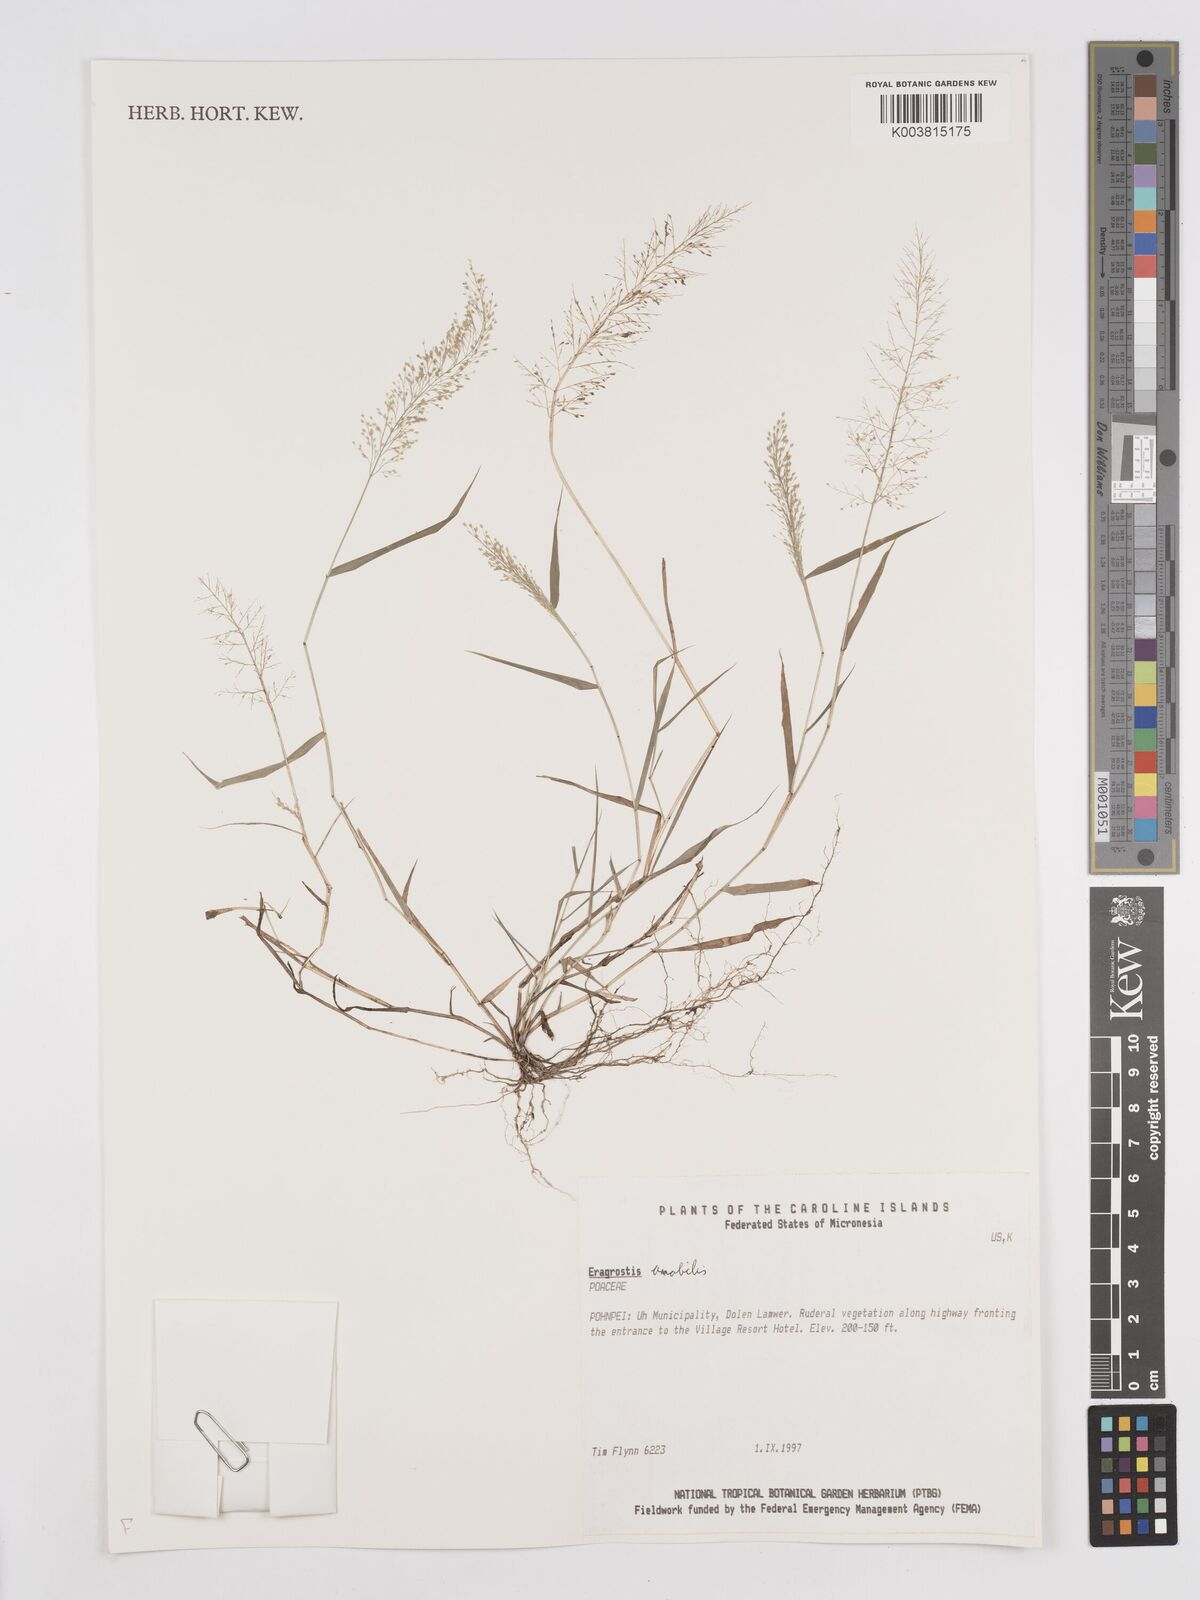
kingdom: Plantae
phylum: Tracheophyta
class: Liliopsida
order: Poales
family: Poaceae
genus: Eragrostis
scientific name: Eragrostis tenella
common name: Japanese lovegrass
